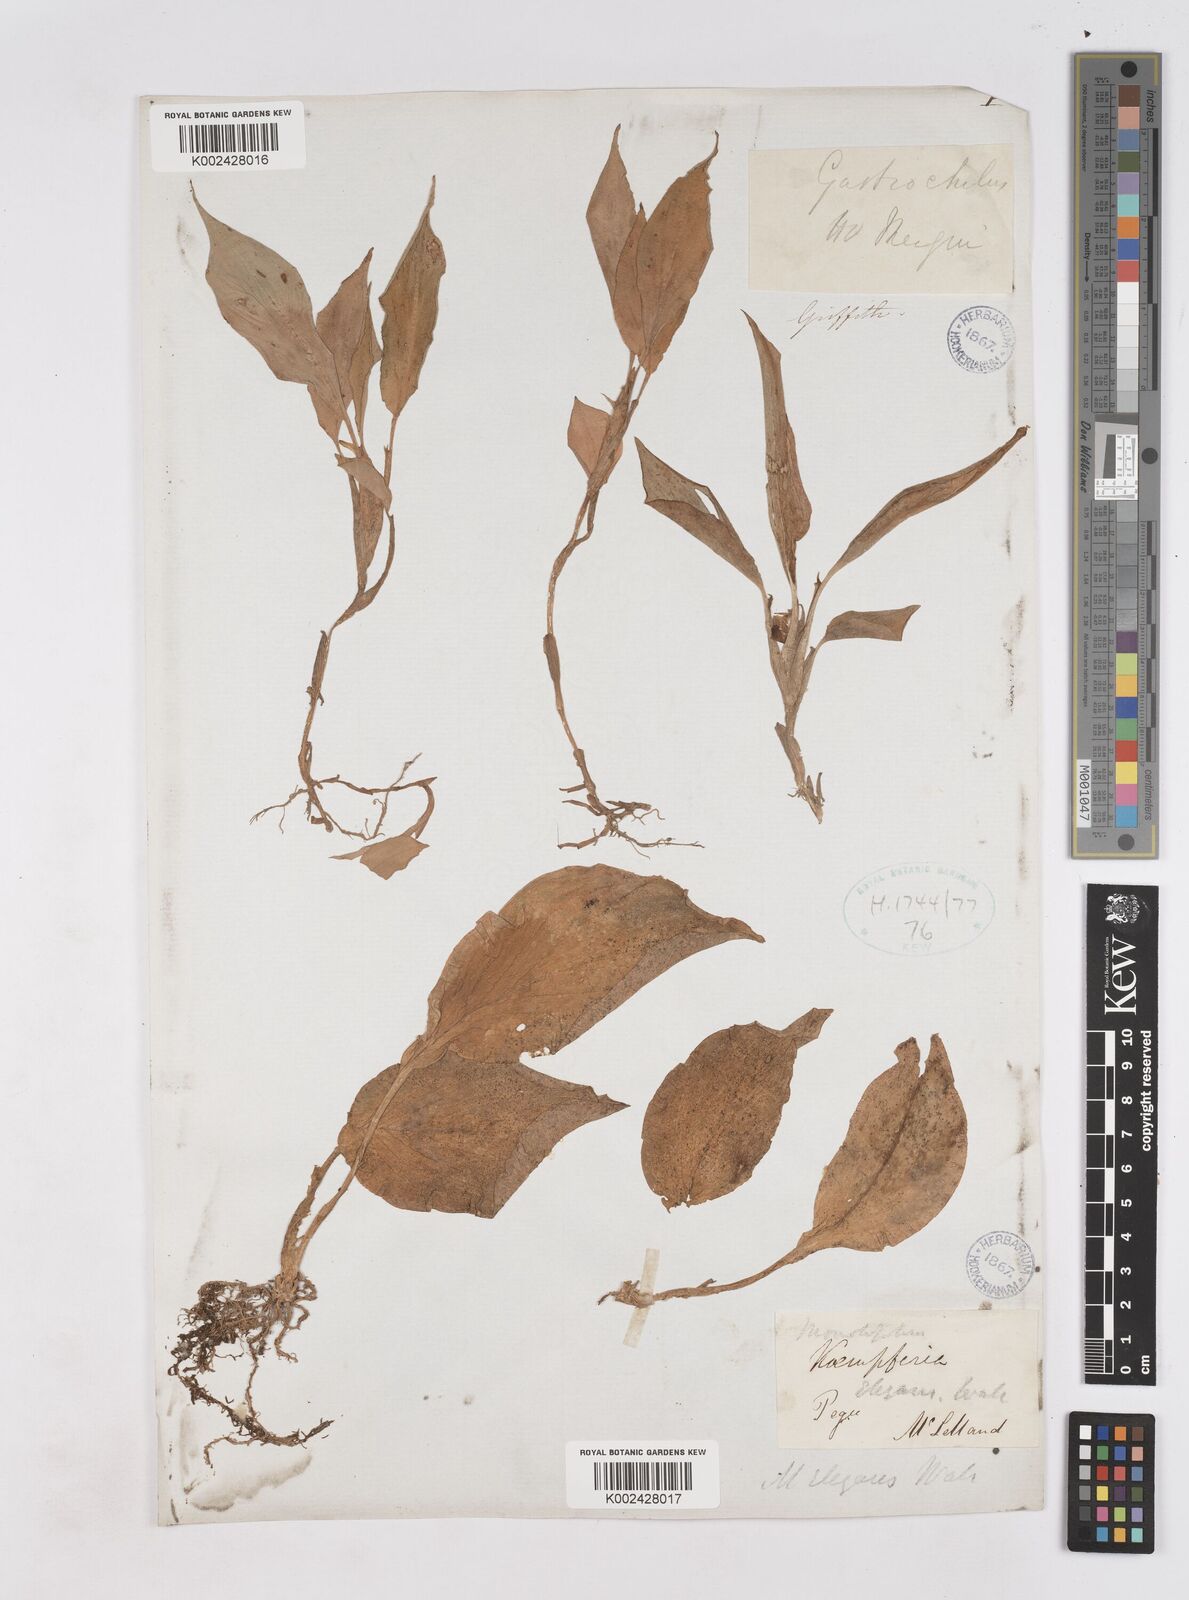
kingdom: Plantae
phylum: Tracheophyta
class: Liliopsida
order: Zingiberales
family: Zingiberaceae
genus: Kaempferia
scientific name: Kaempferia elegans
